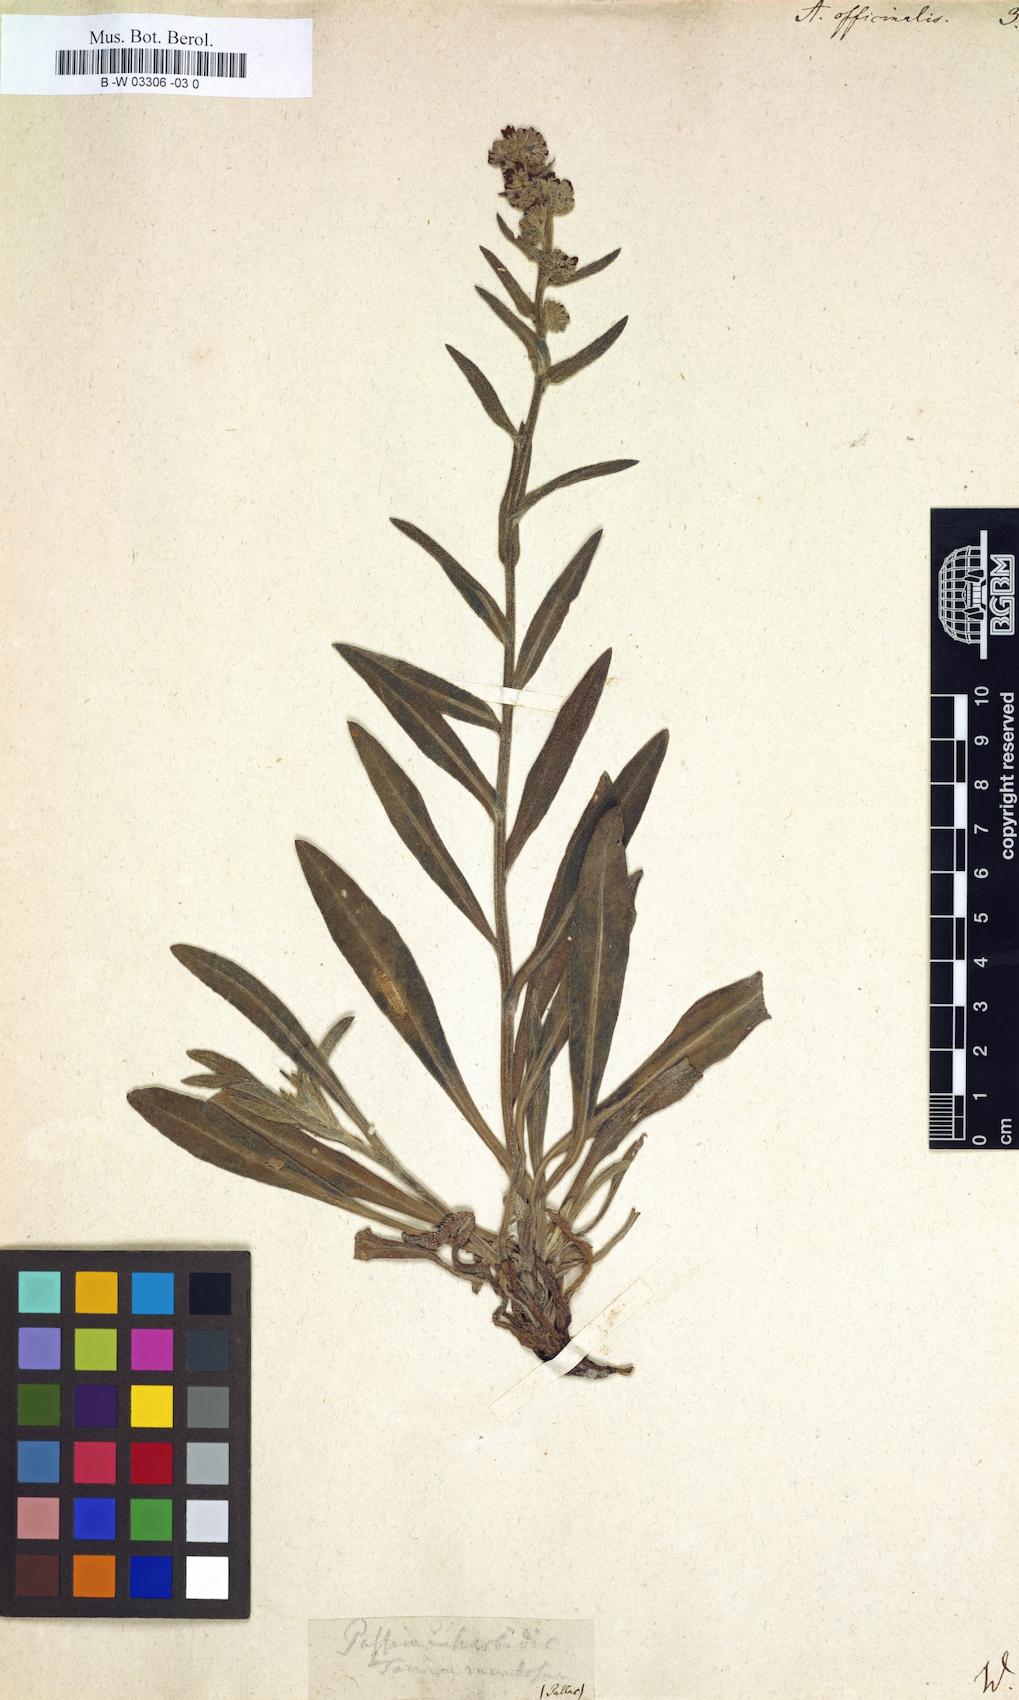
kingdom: Plantae
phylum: Tracheophyta
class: Magnoliopsida
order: Boraginales
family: Boraginaceae
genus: Anchusa
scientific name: Anchusa azurea
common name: Garden anchusa
